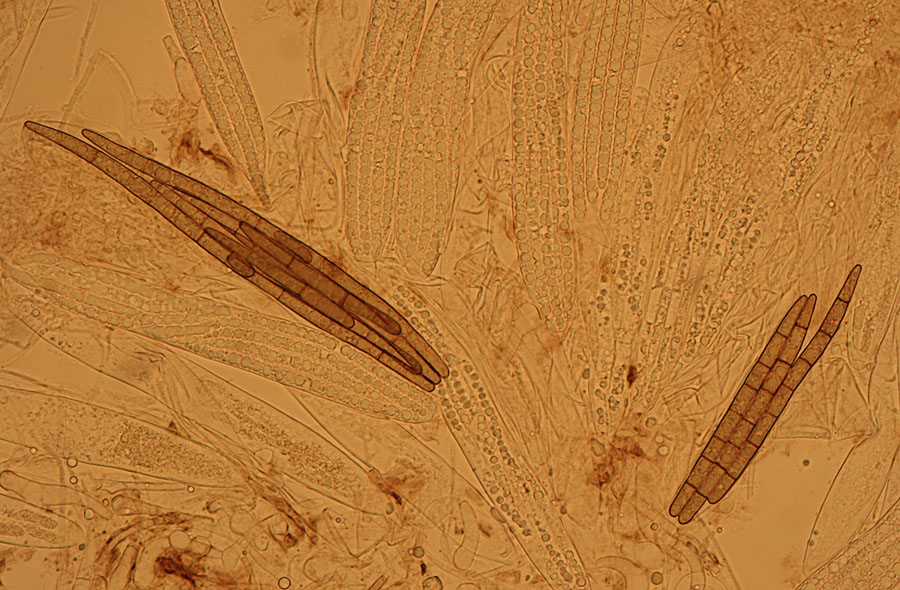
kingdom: Fungi
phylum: Ascomycota
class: Geoglossomycetes
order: Geoglossales
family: Geoglossaceae
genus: Geoglossum
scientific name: Geoglossum fallax
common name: småskællet jordtunge
